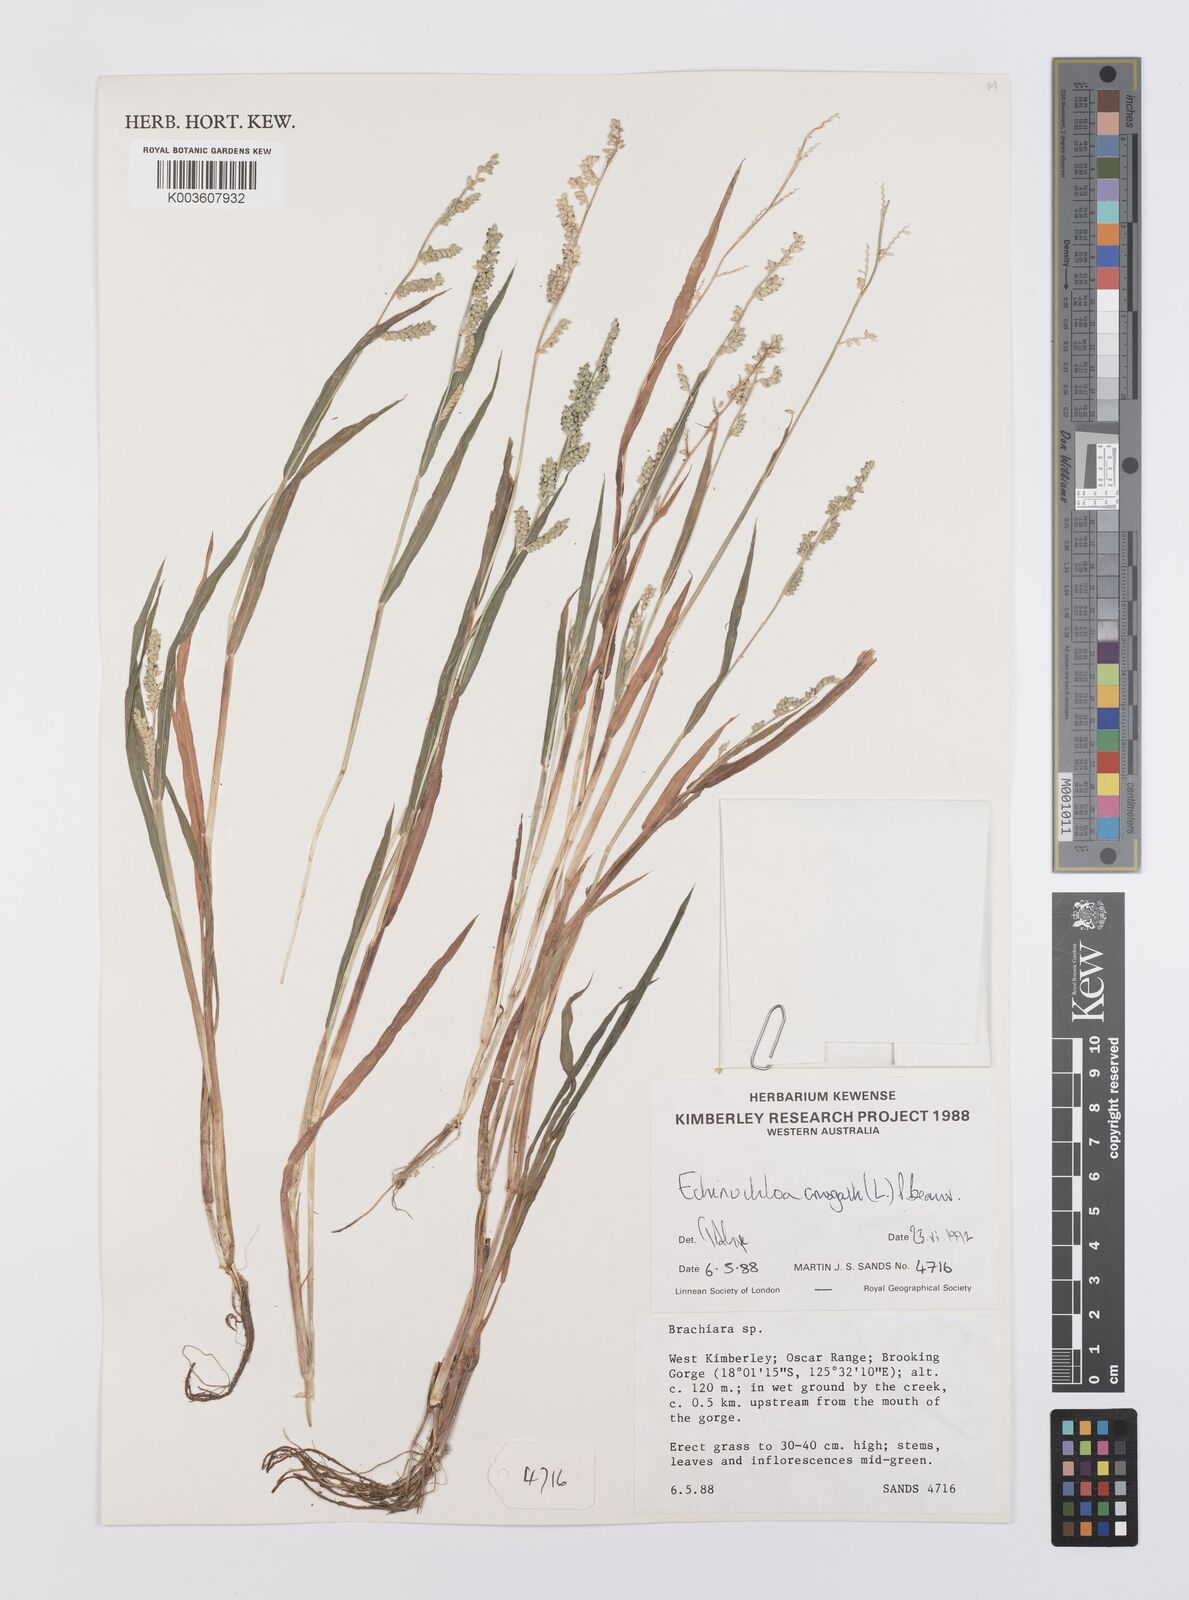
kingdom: Plantae
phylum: Tracheophyta
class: Liliopsida
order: Poales
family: Poaceae
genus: Echinochloa
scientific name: Echinochloa crus-galli
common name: Cockspur
